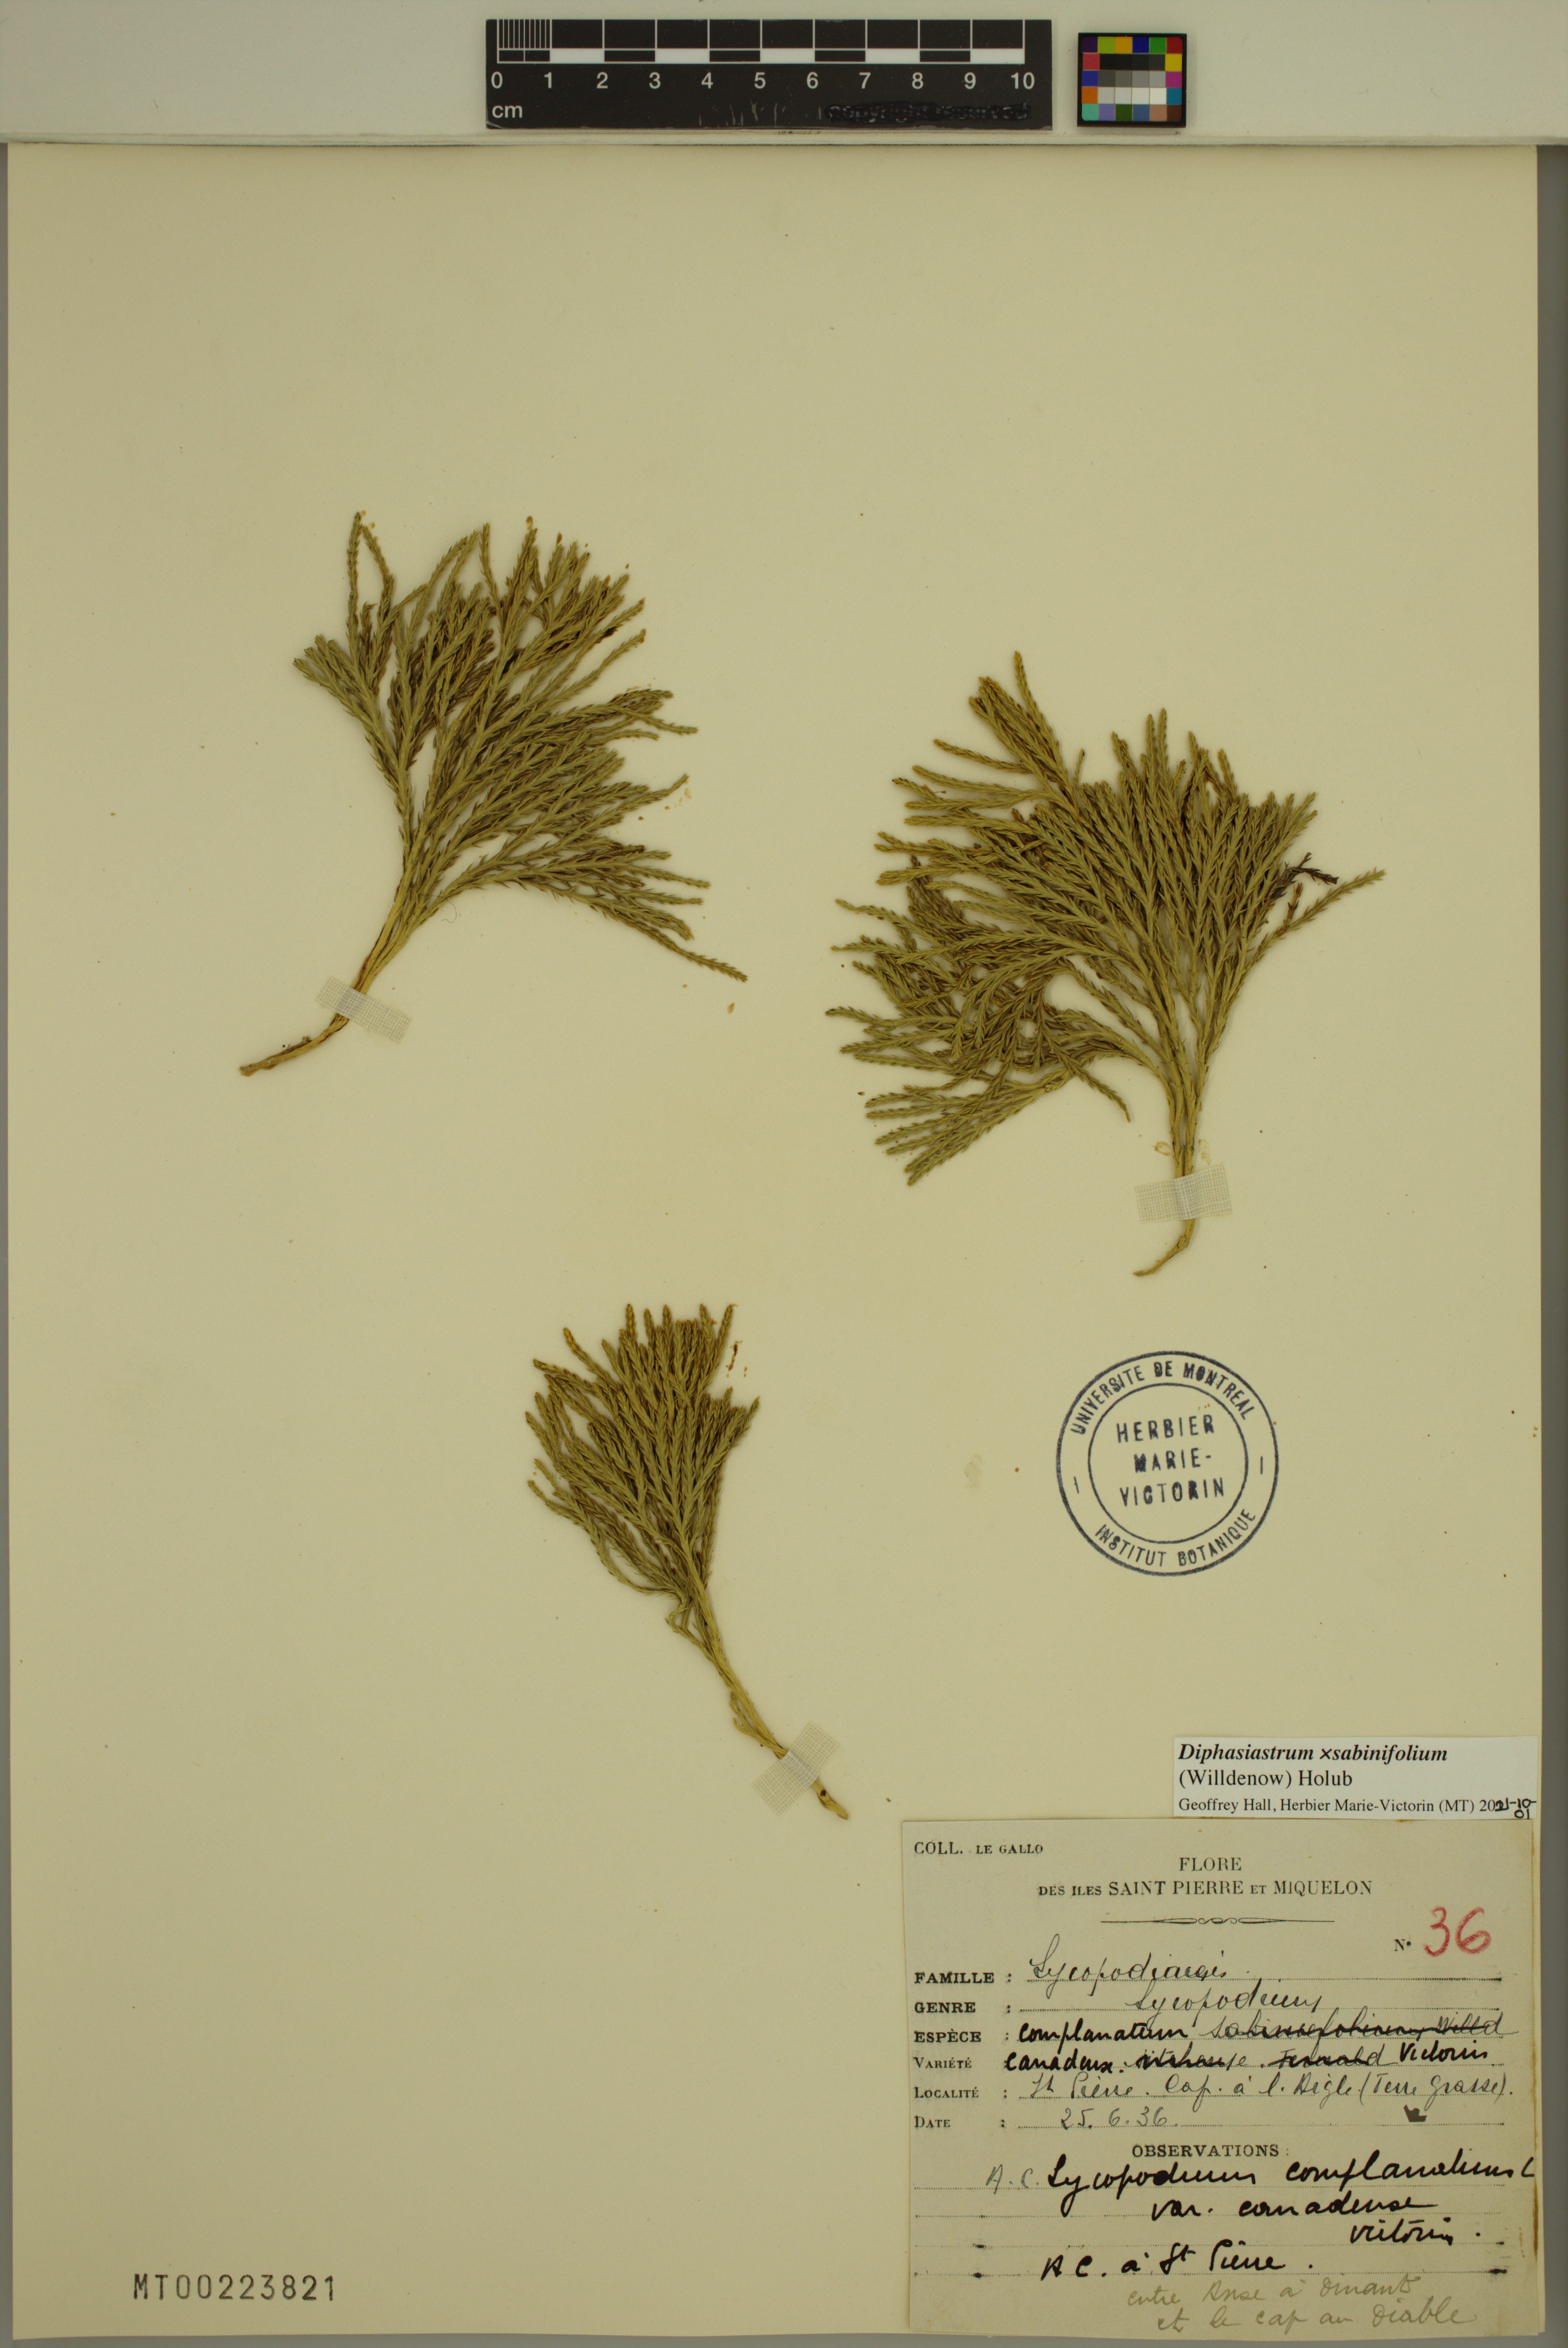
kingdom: Plantae
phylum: Tracheophyta
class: Lycopodiopsida
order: Lycopodiales
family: Lycopodiaceae
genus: Diphasiastrum
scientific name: Diphasiastrum sabinifolium
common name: Juniper clubmoss
